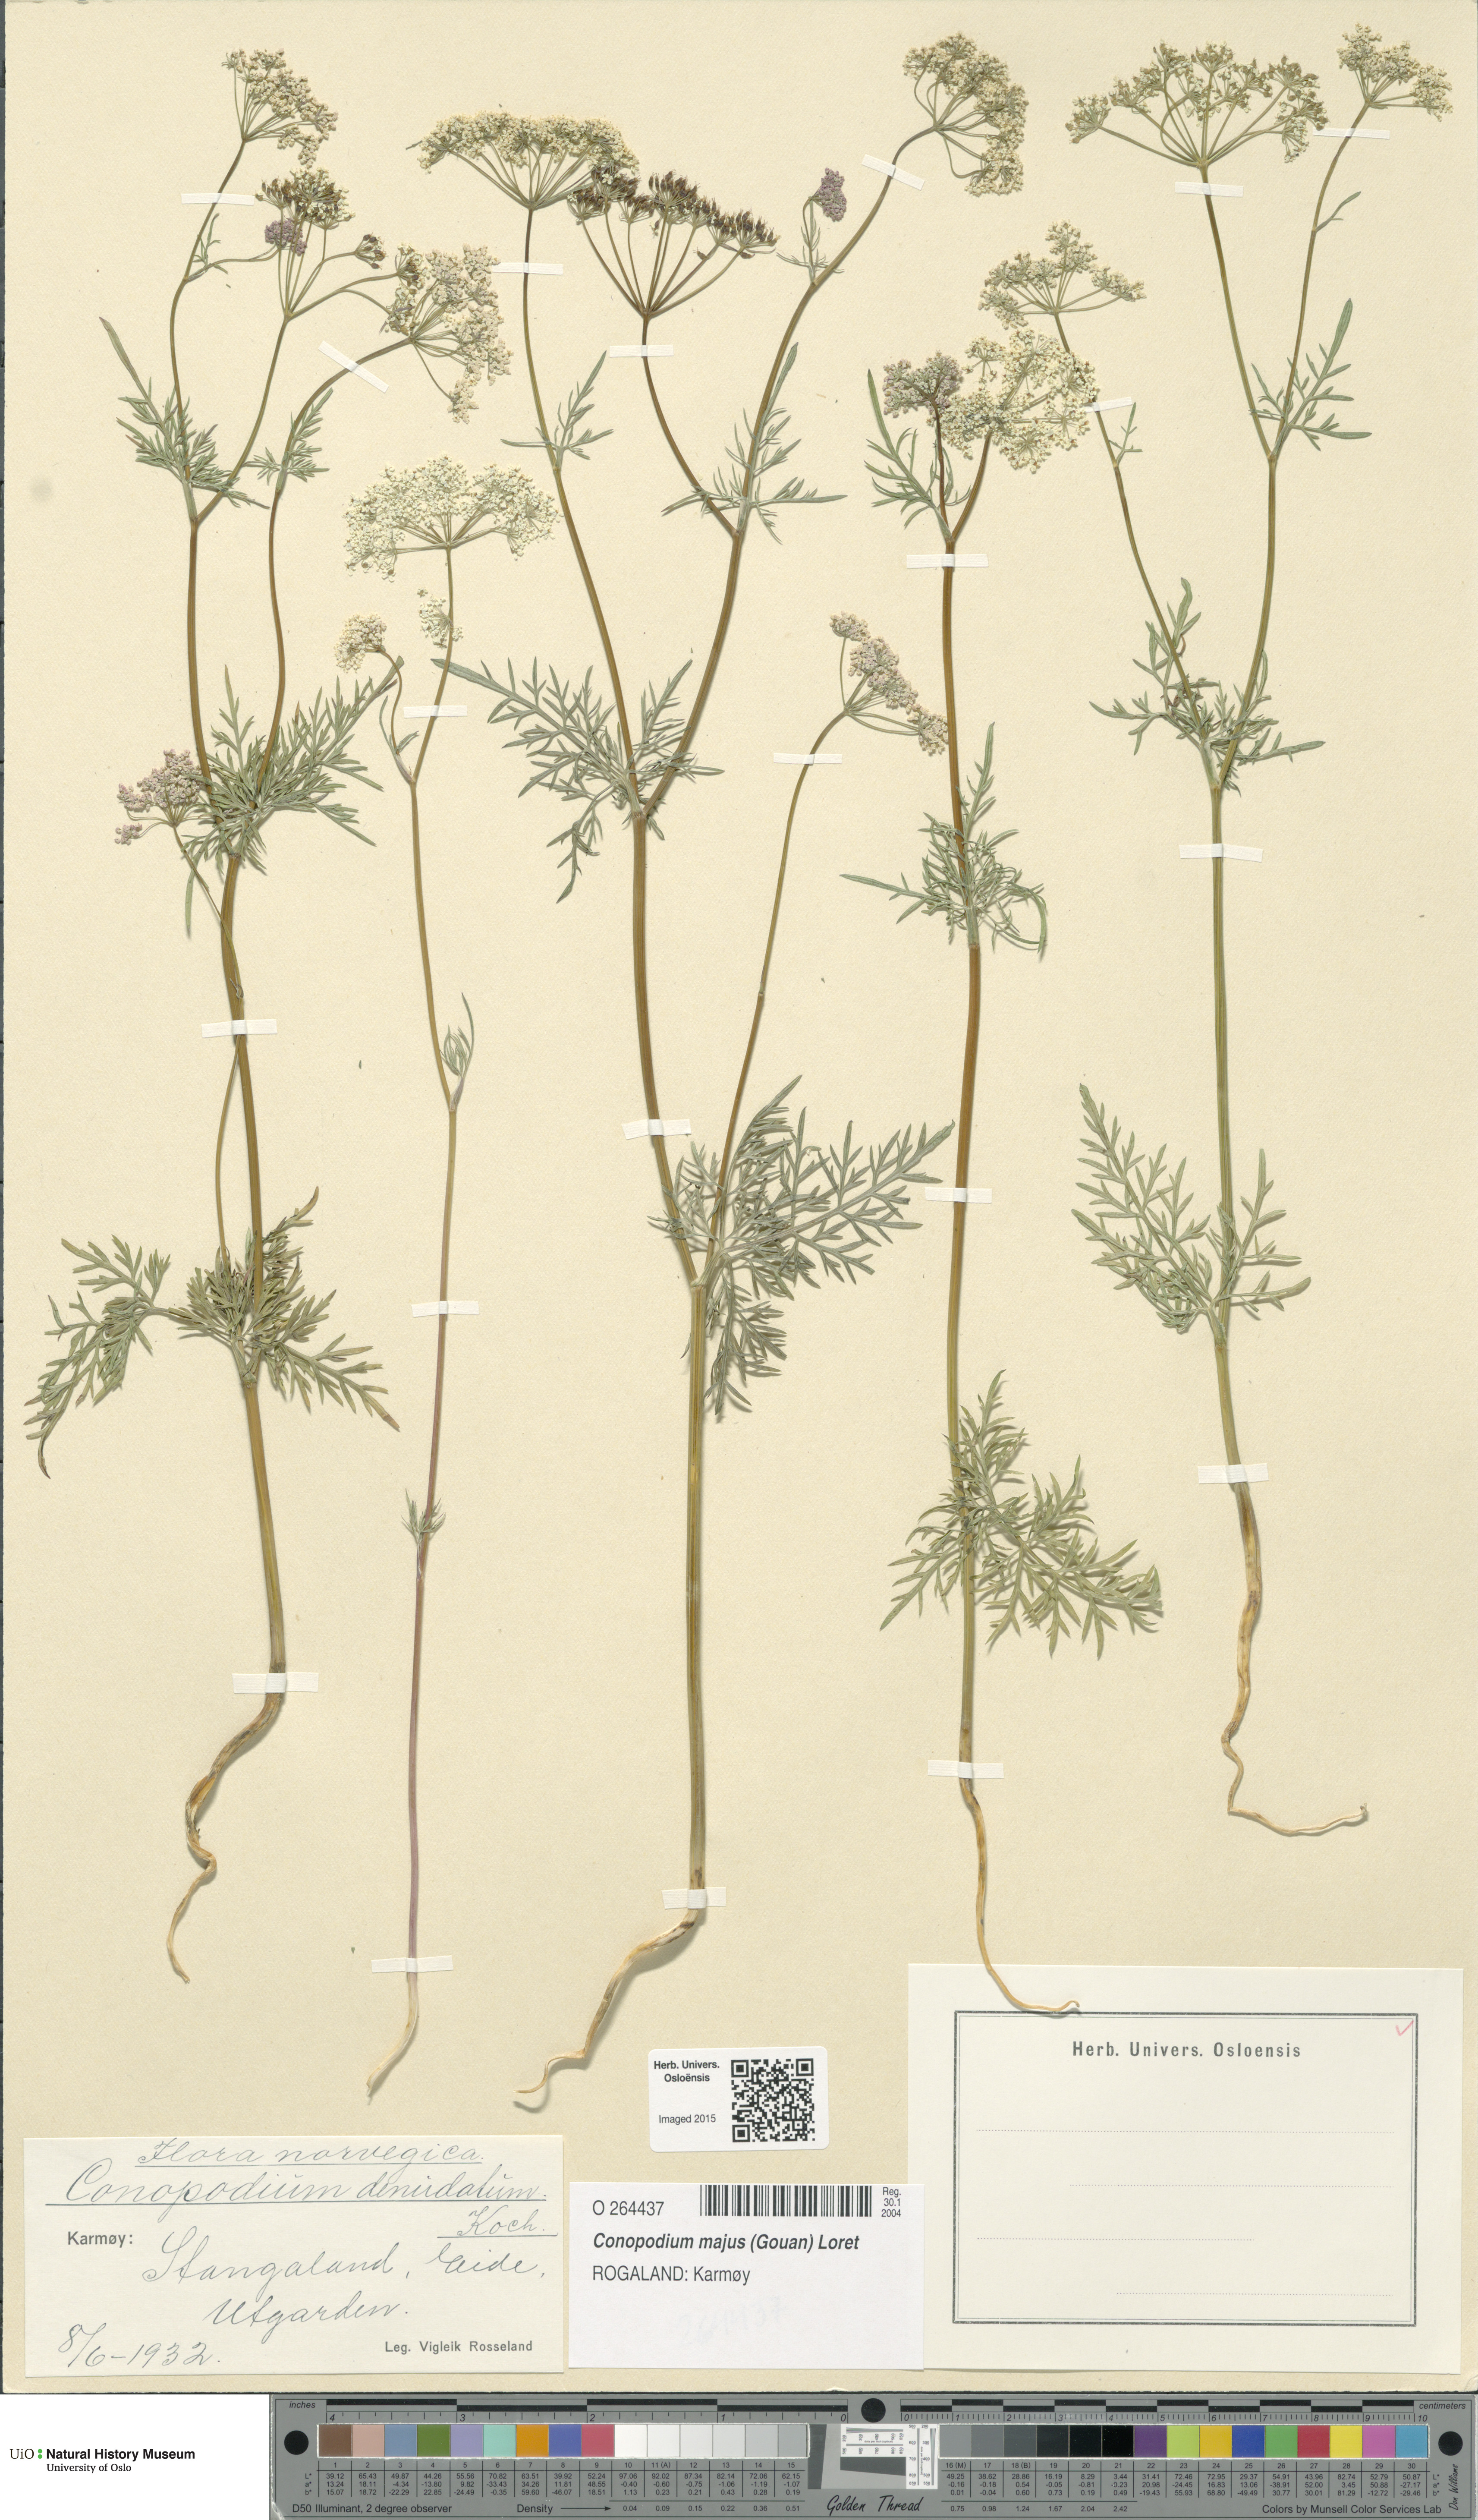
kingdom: Plantae
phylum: Tracheophyta
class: Magnoliopsida
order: Apiales
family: Apiaceae
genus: Conopodium
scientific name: Conopodium majus
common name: Pignut
